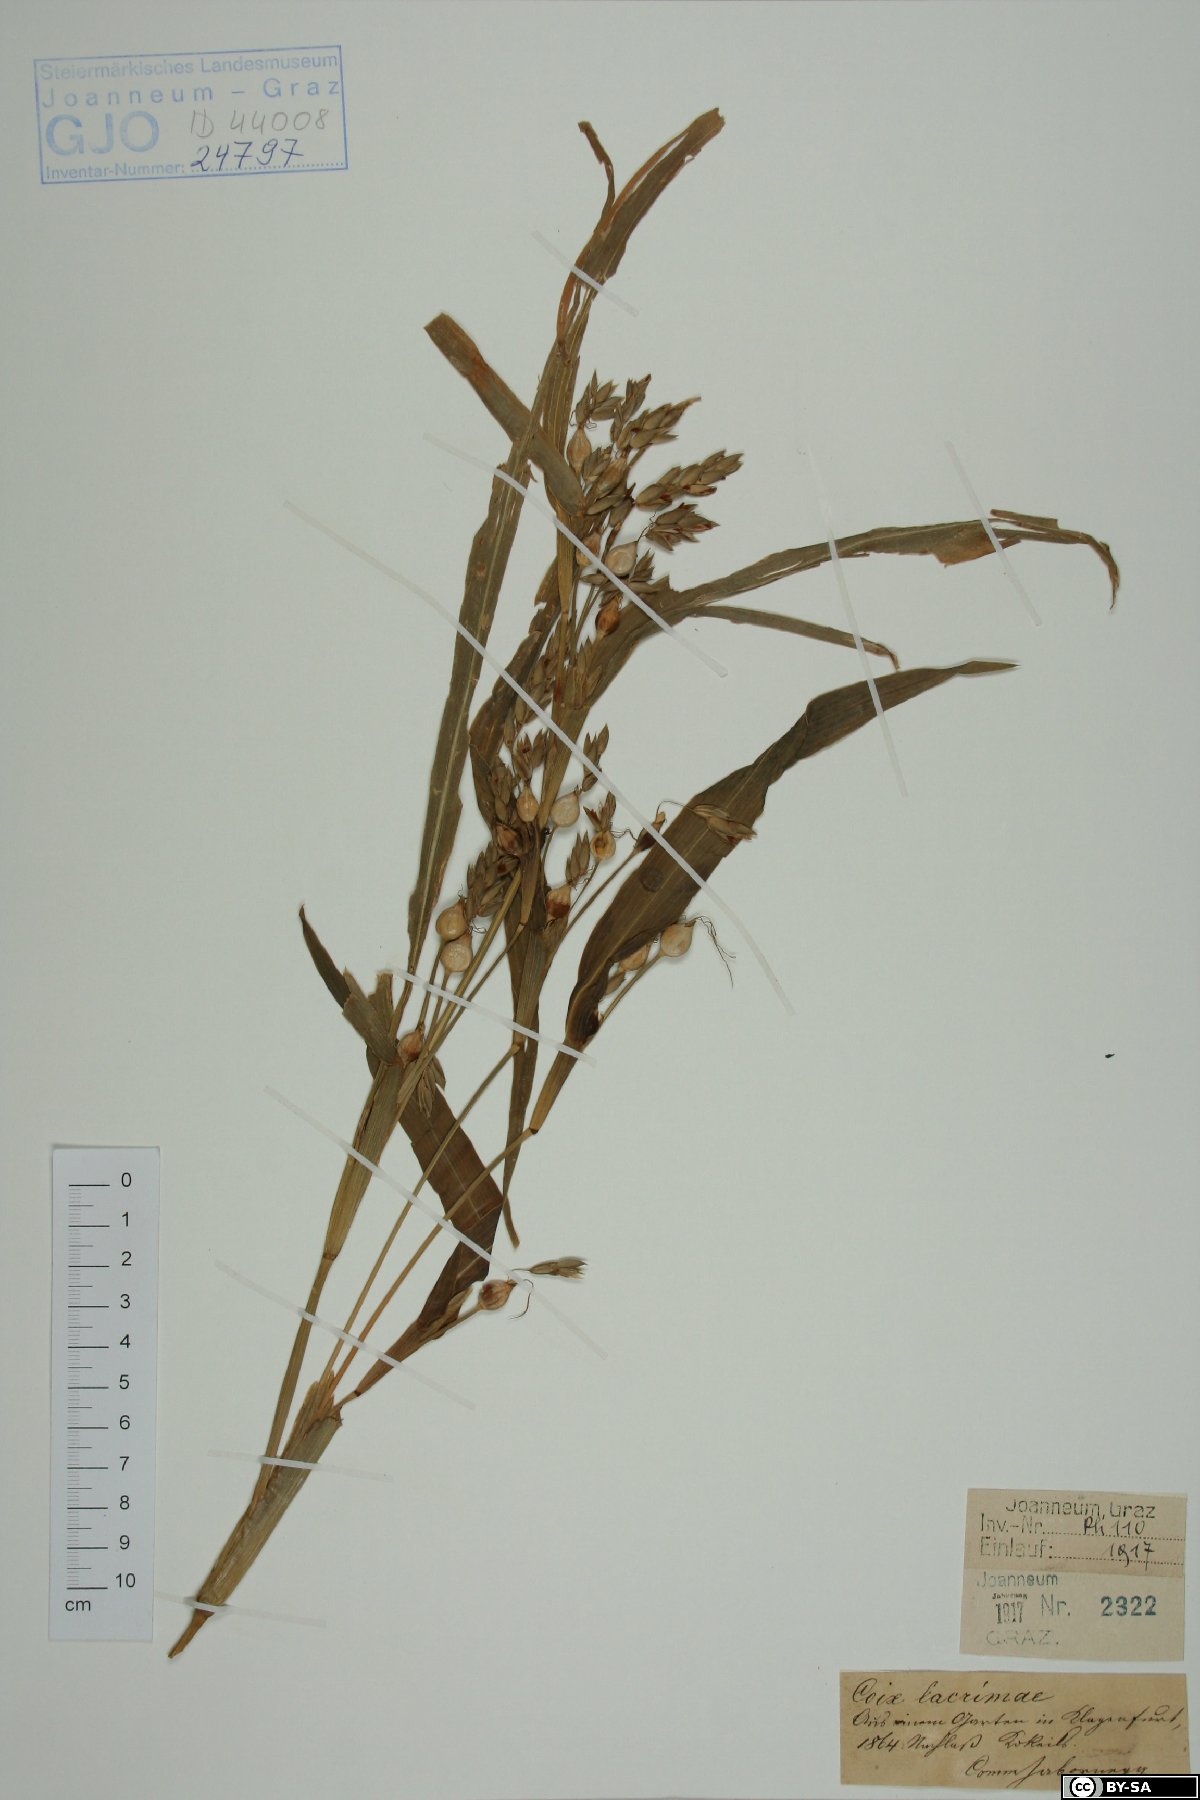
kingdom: Plantae
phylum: Tracheophyta
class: Liliopsida
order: Poales
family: Poaceae
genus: Coix
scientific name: Coix lacryma-jobi
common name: Job's tears
